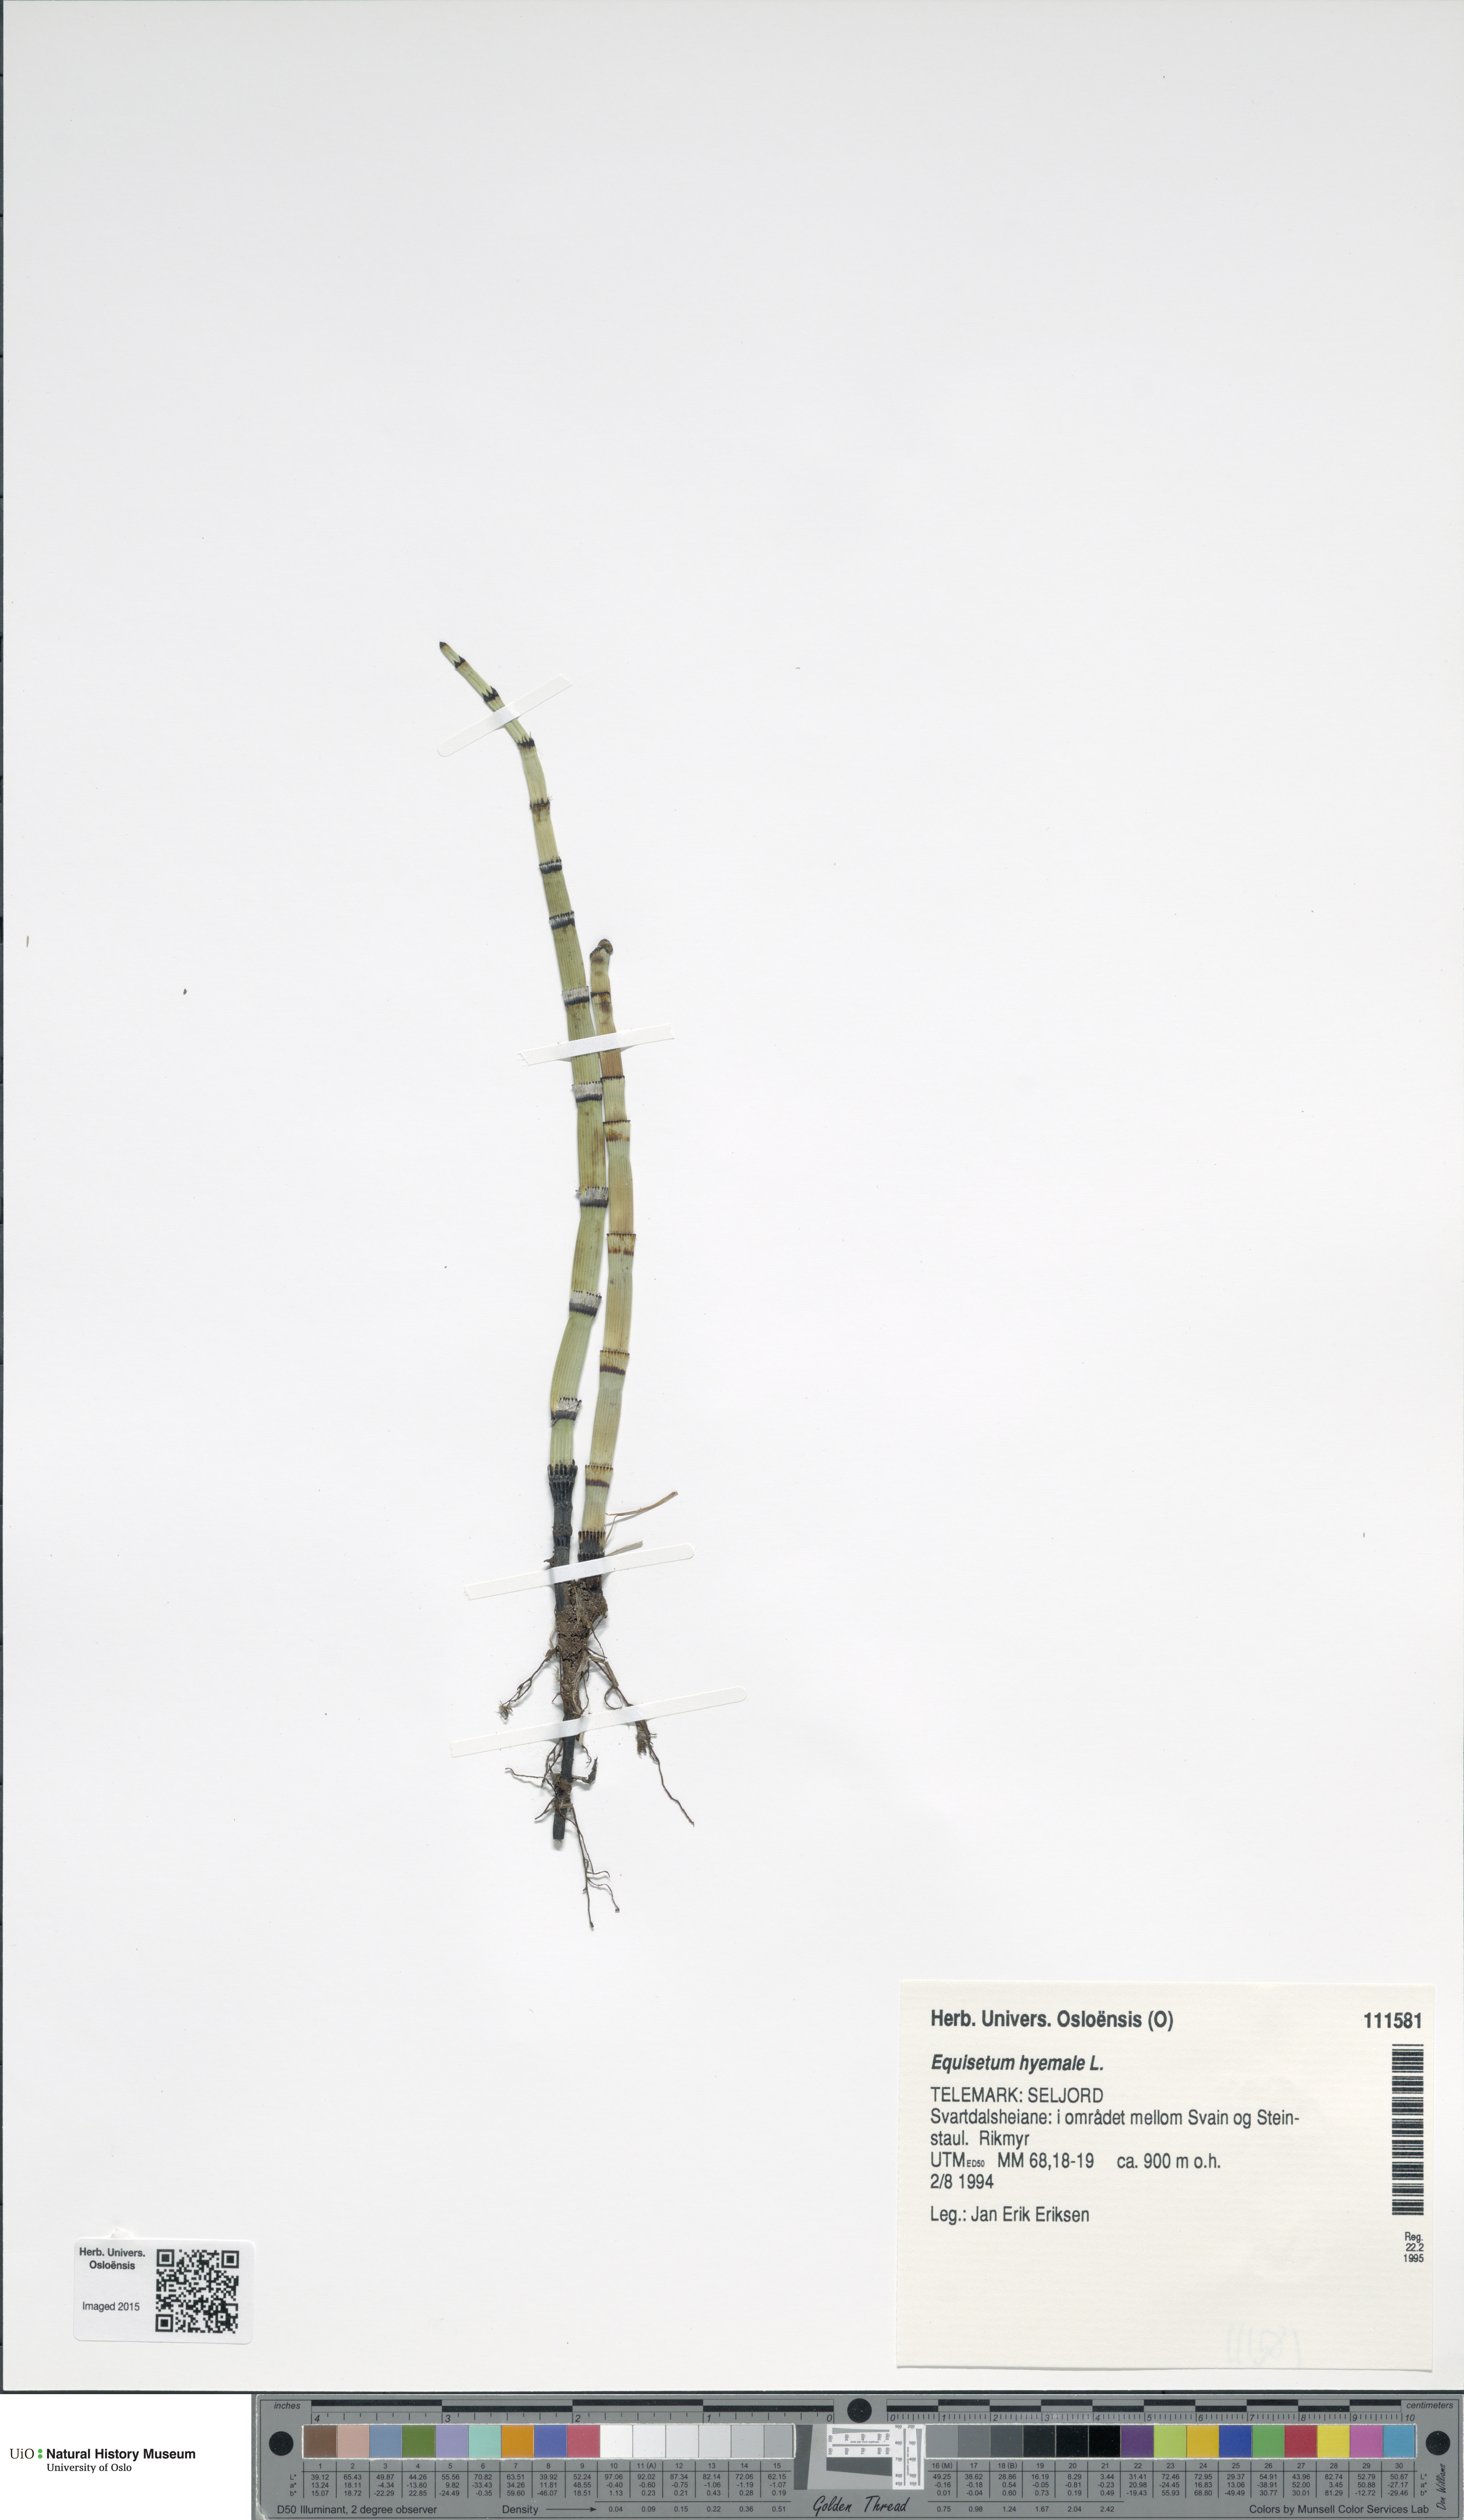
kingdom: Plantae
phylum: Tracheophyta
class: Polypodiopsida
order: Equisetales
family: Equisetaceae
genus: Equisetum
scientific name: Equisetum hyemale
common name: Rough horsetail
